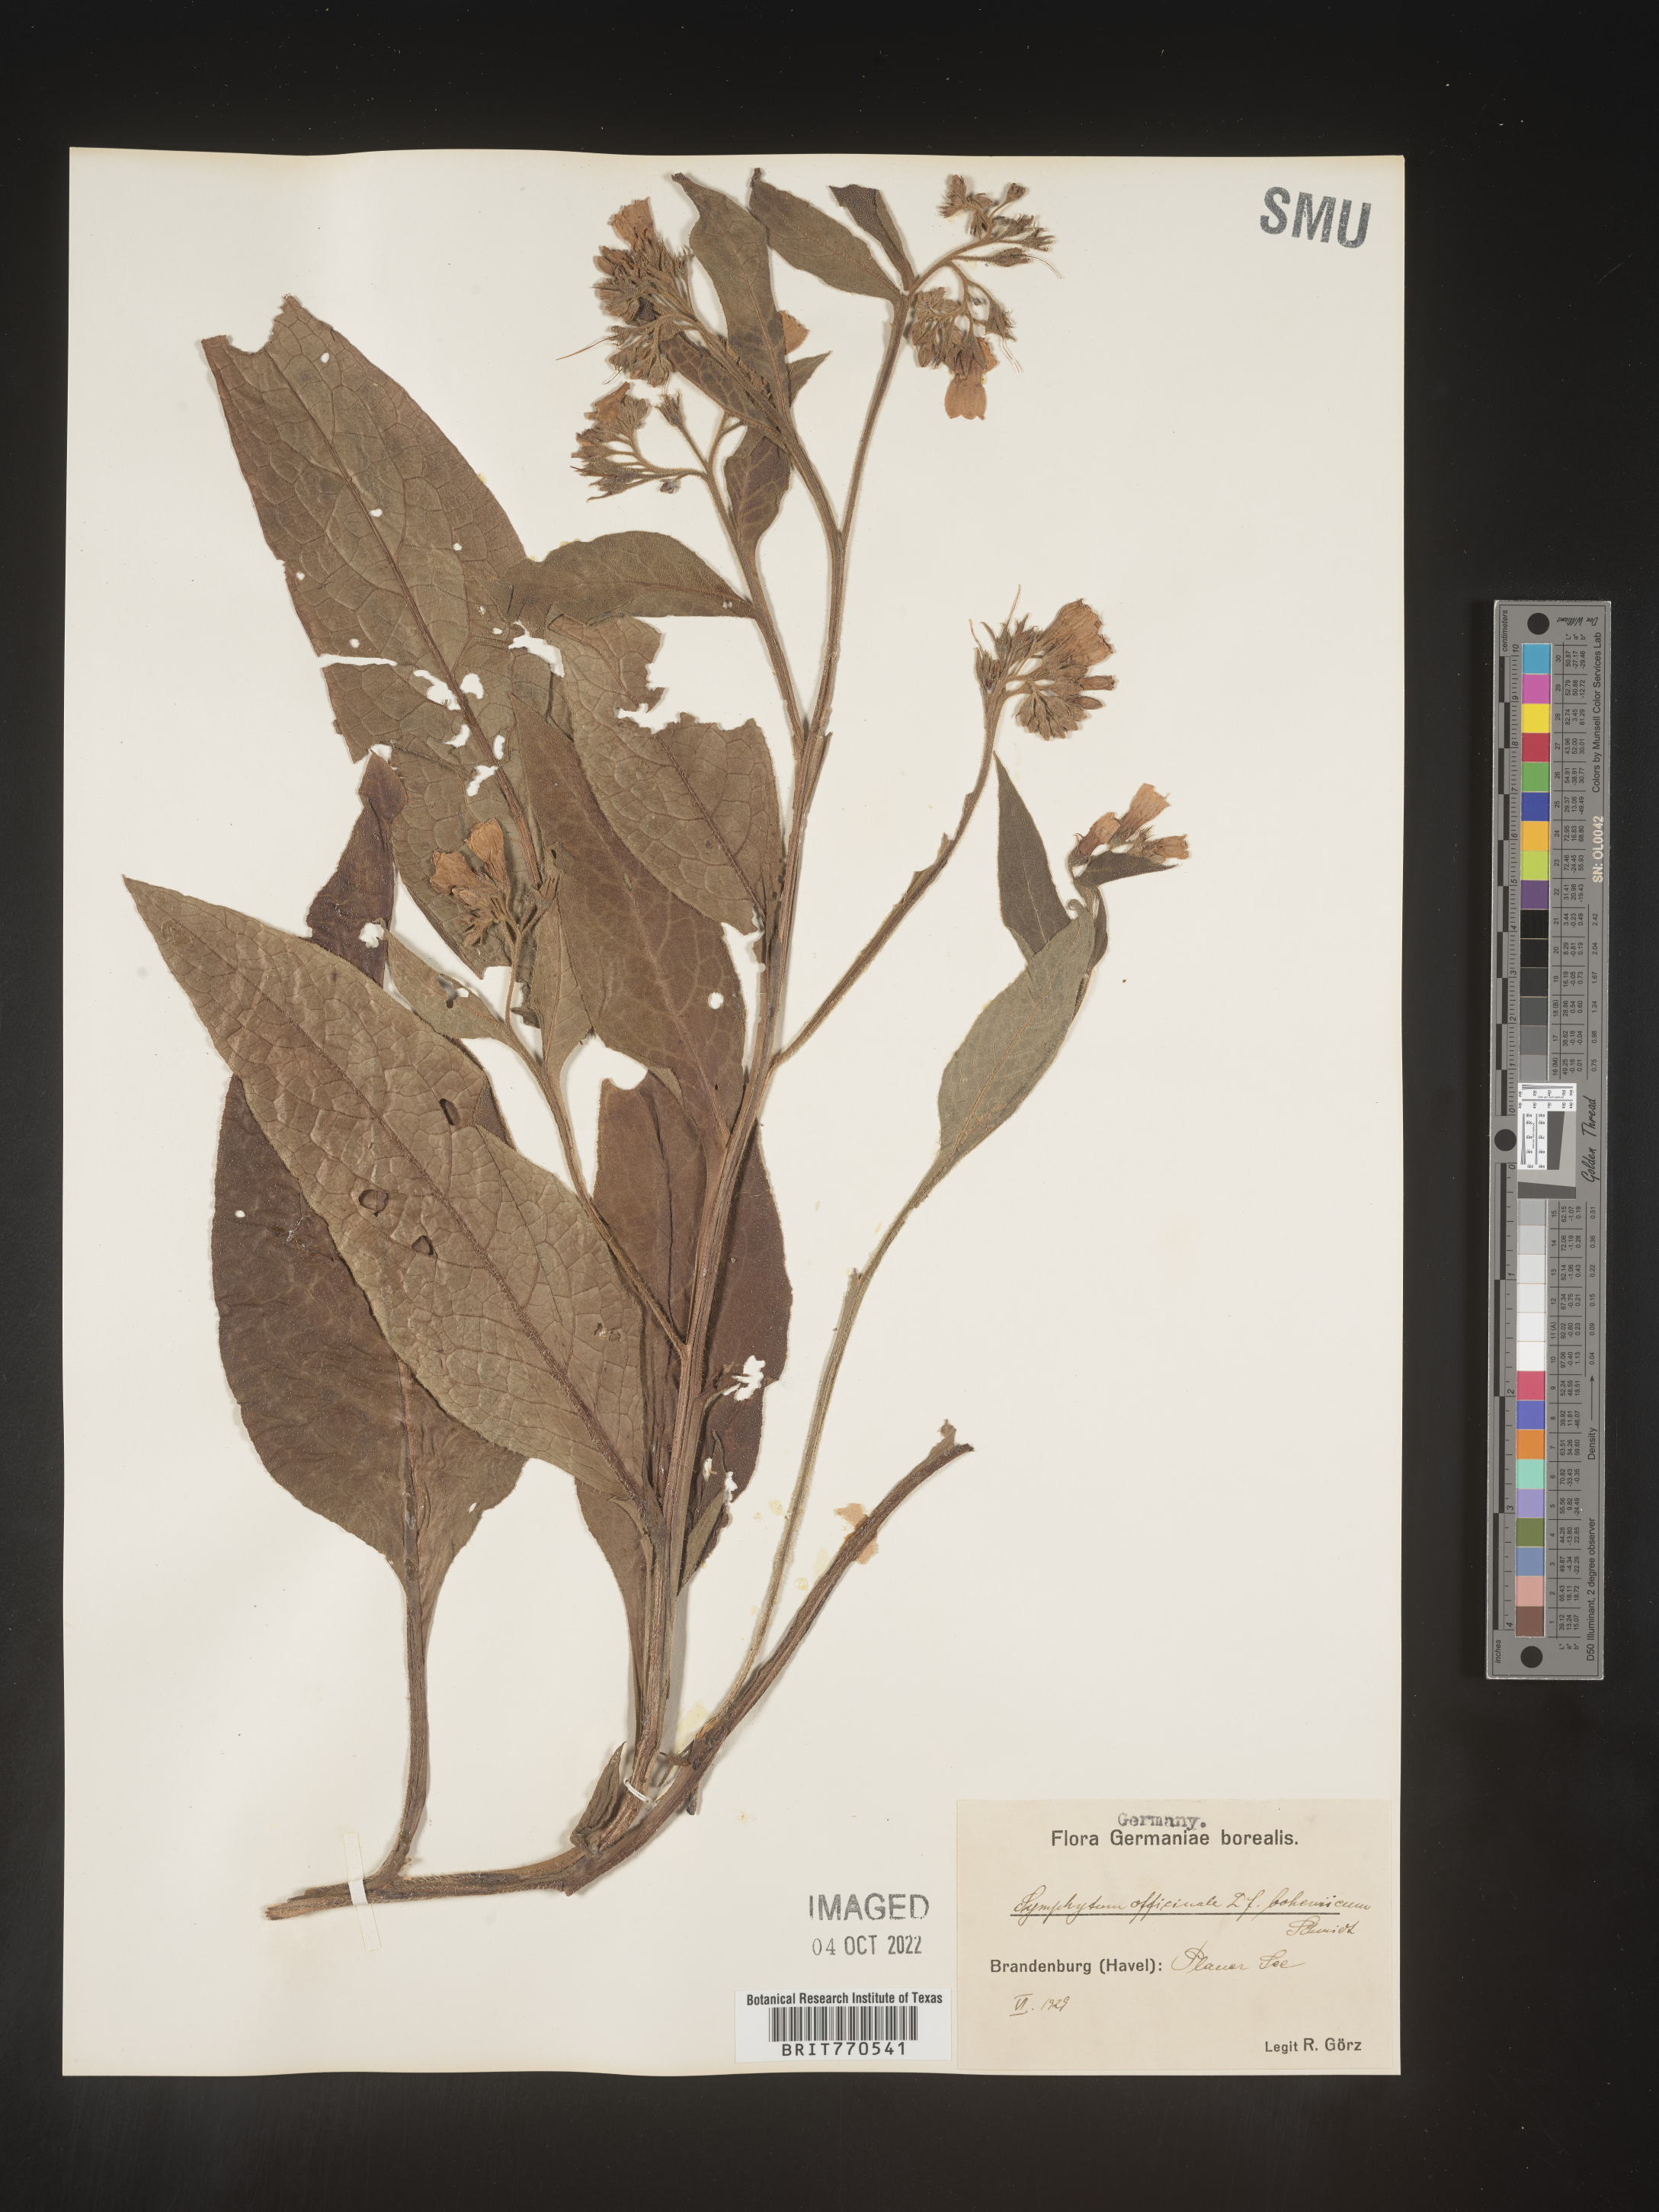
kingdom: Plantae
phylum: Tracheophyta
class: Magnoliopsida
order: Boraginales
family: Boraginaceae
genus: Symphytum
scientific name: Symphytum
